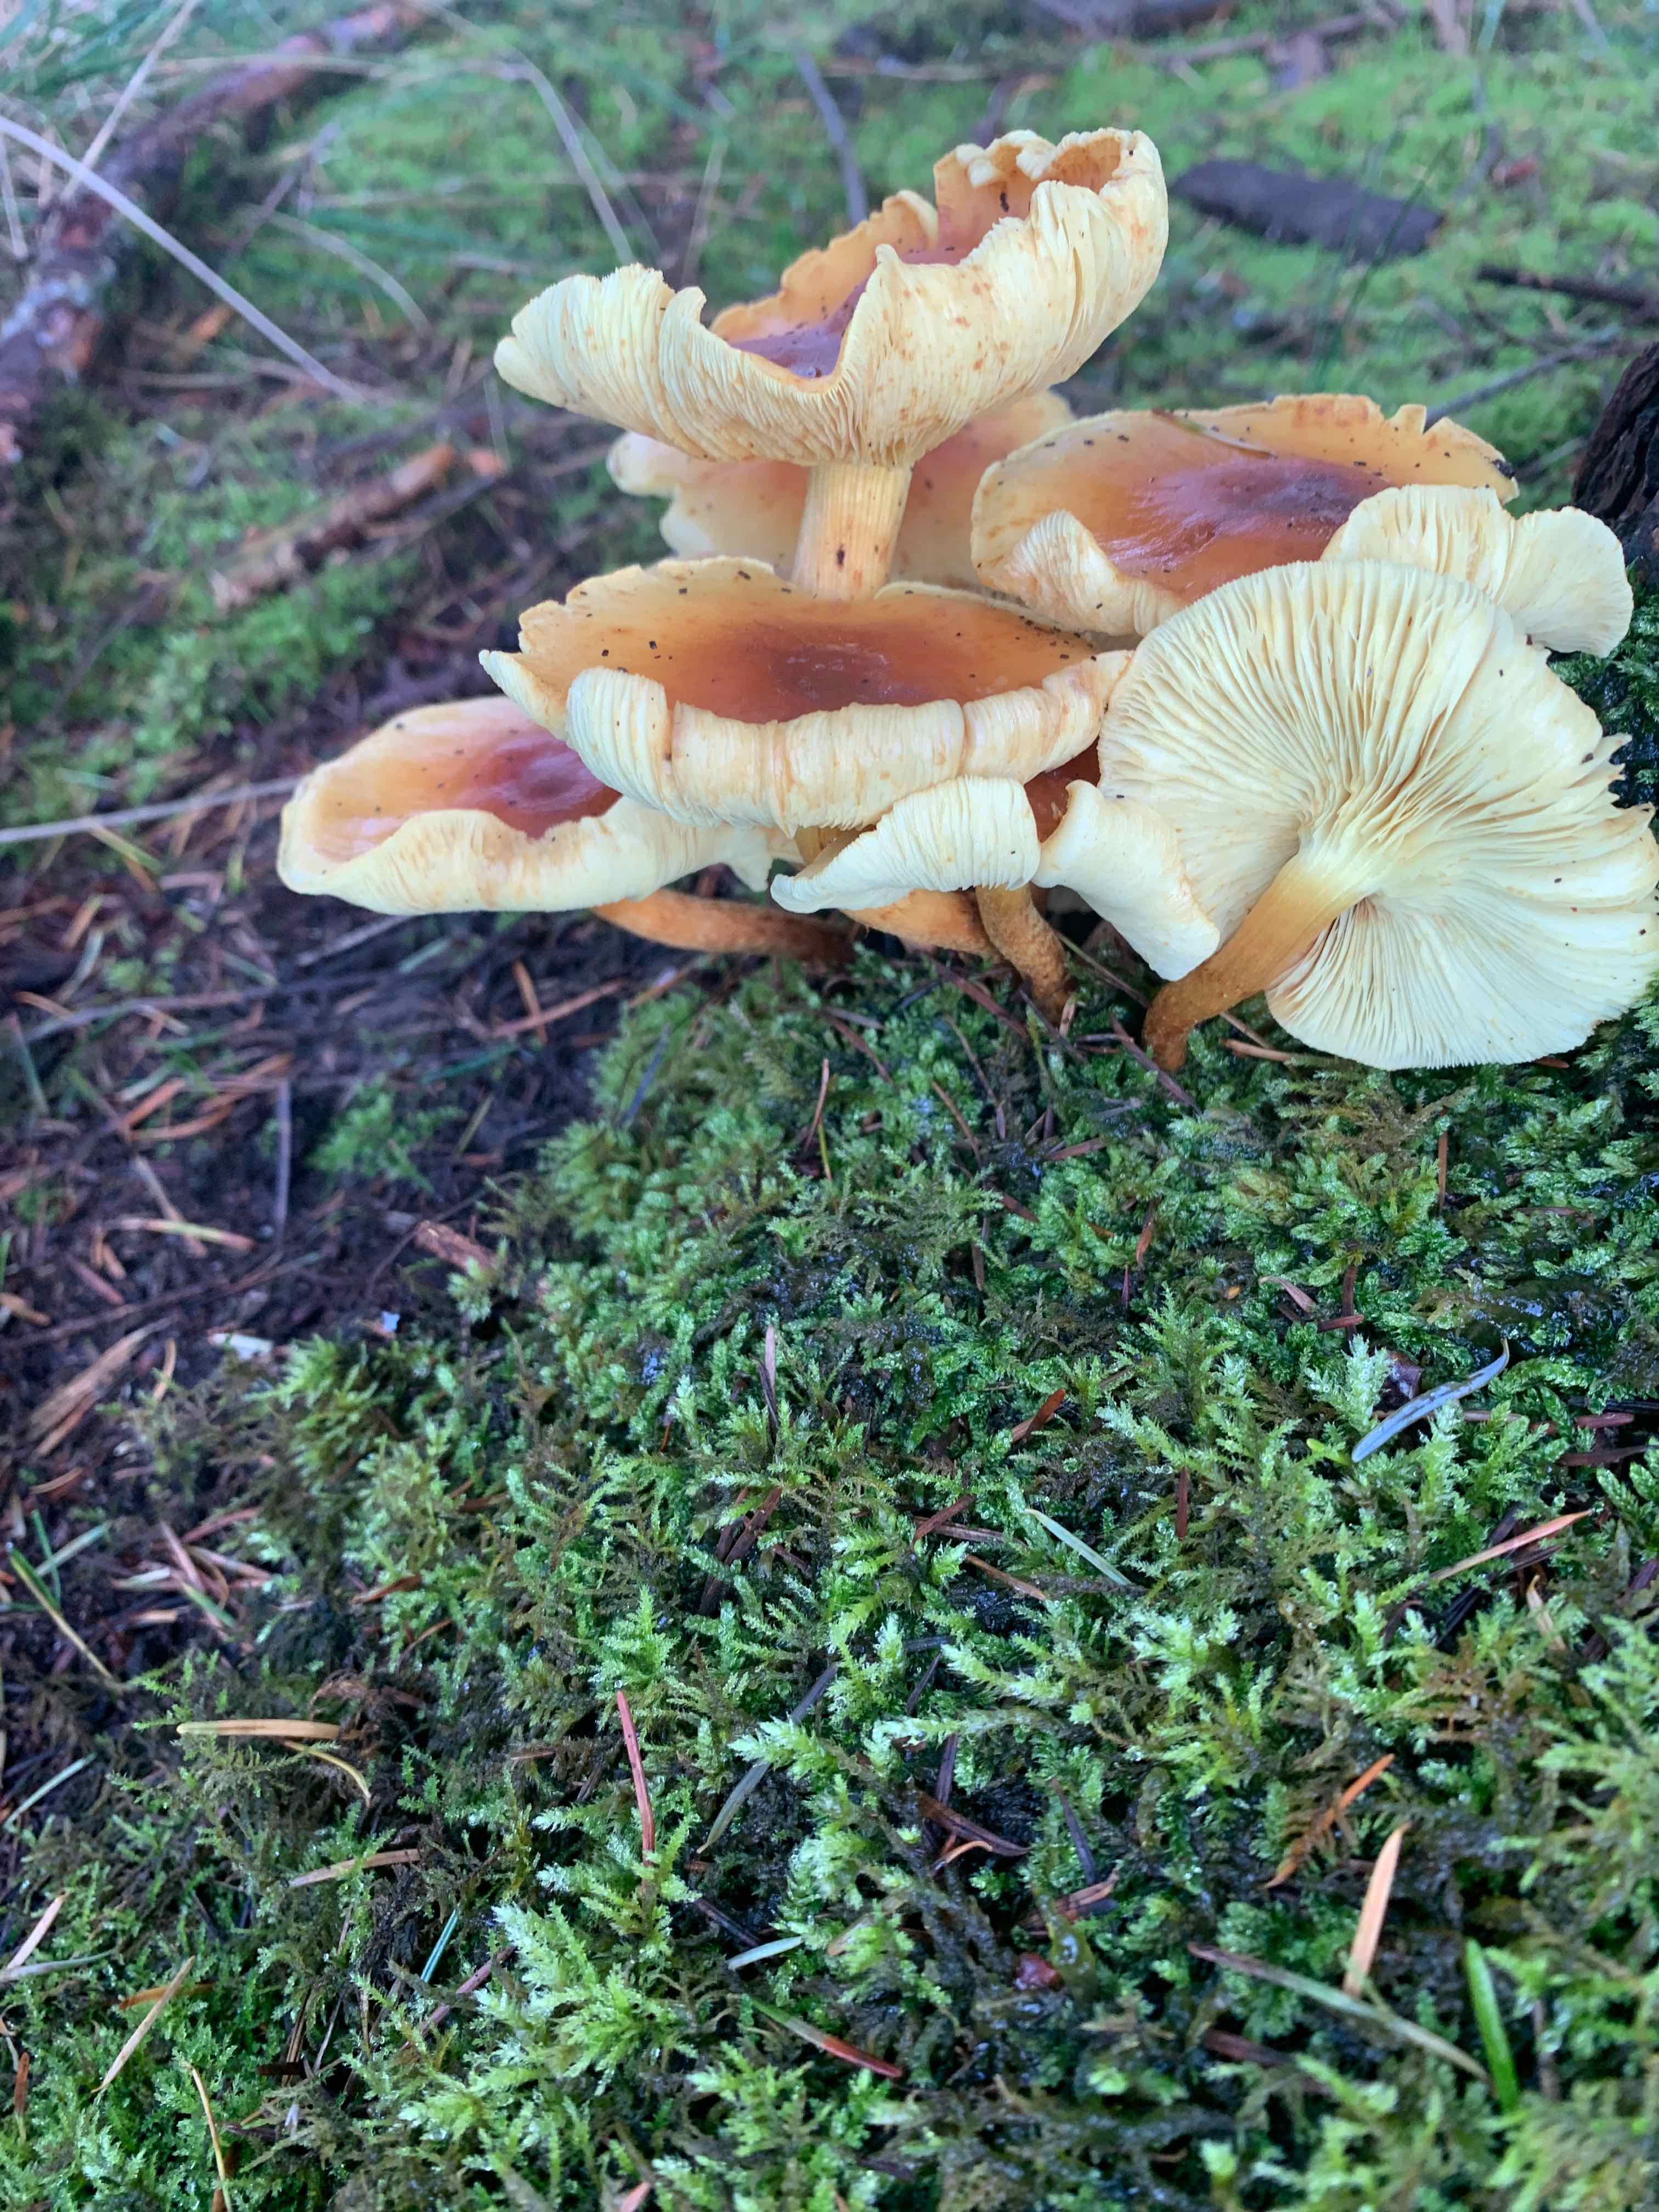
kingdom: Fungi
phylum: Basidiomycota
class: Agaricomycetes
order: Agaricales
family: Strophariaceae
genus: Hypholoma
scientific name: Hypholoma fasciculare
